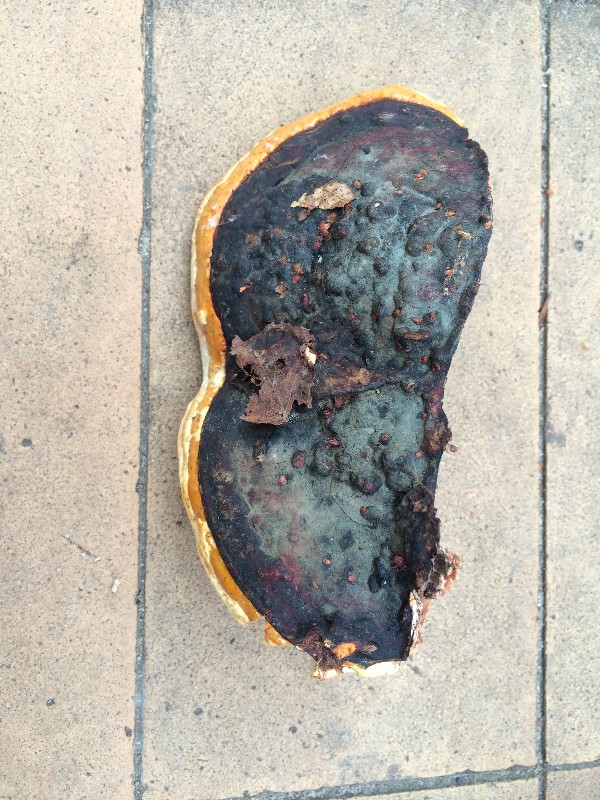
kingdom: Fungi
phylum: Basidiomycota
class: Agaricomycetes
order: Polyporales
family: Fomitopsidaceae
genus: Fomitopsis
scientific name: Fomitopsis pinicola
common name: randbæltet hovporesvamp
